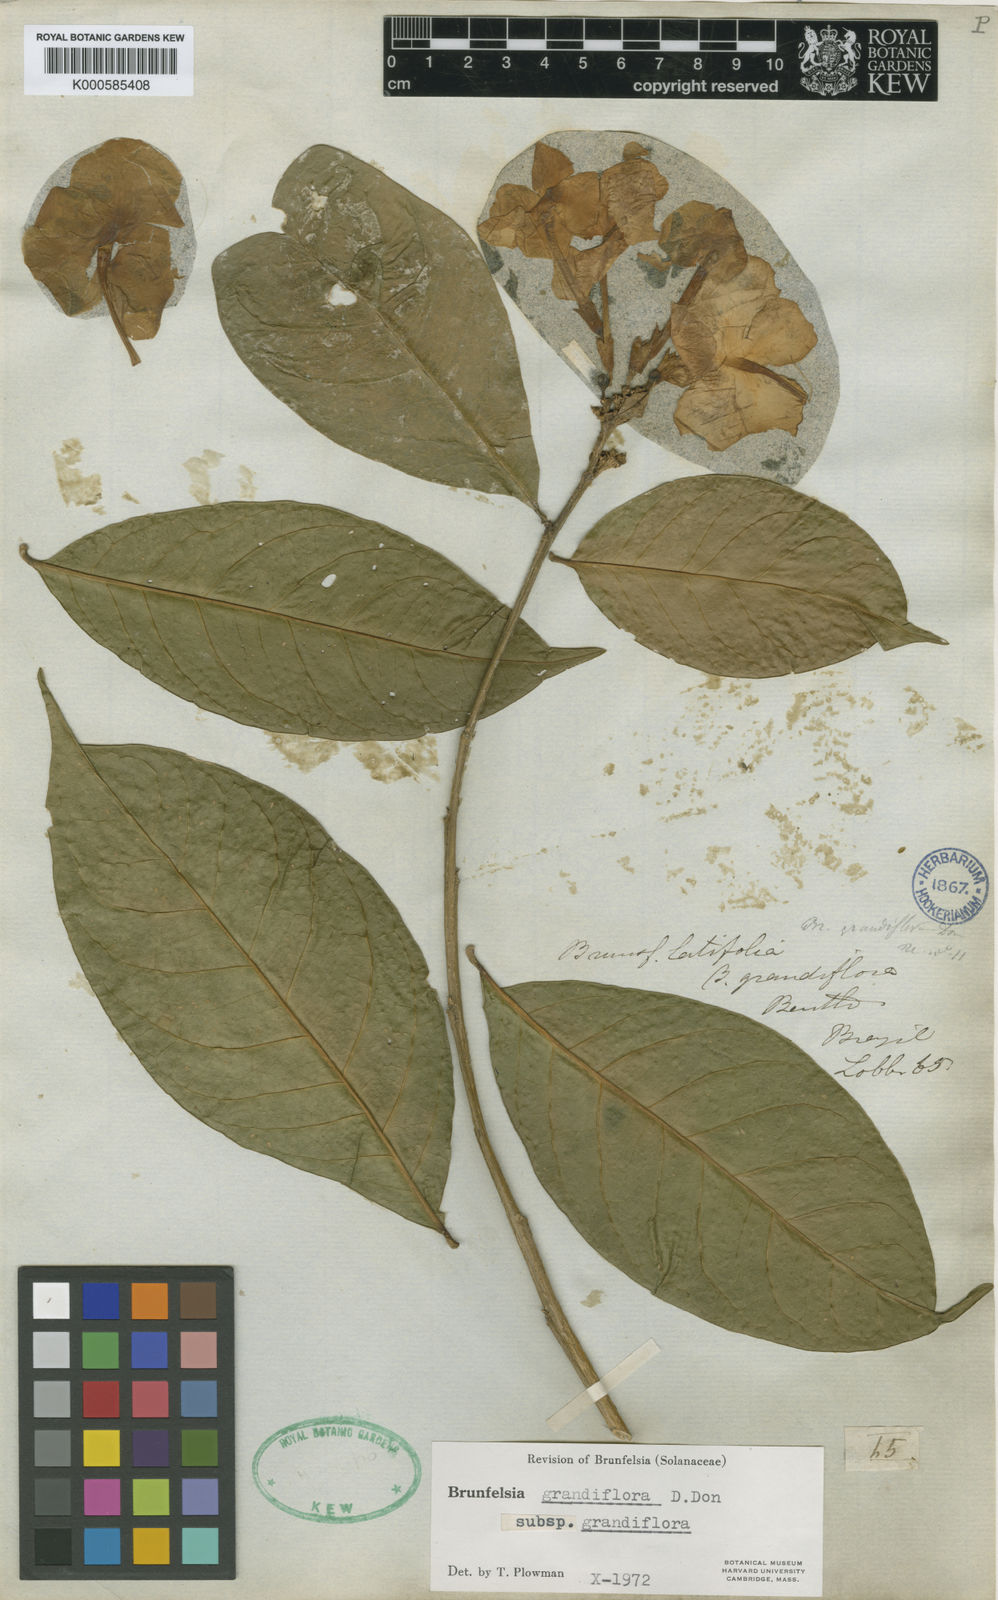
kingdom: Plantae
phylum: Tracheophyta
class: Magnoliopsida
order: Solanales
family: Solanaceae
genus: Brunfelsia
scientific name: Brunfelsia grandiflora
